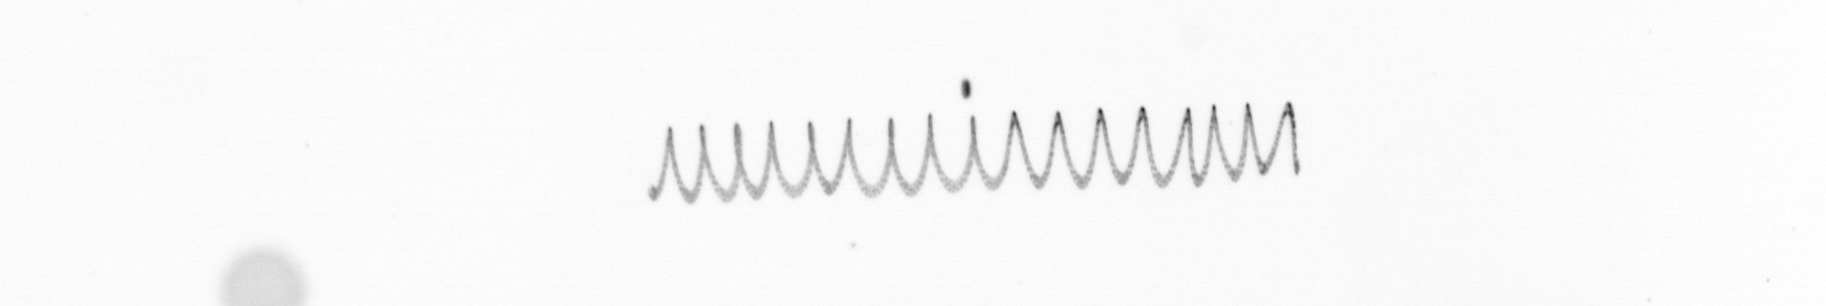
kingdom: Chromista
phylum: Ochrophyta
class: Bacillariophyceae
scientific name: Bacillariophyceae
